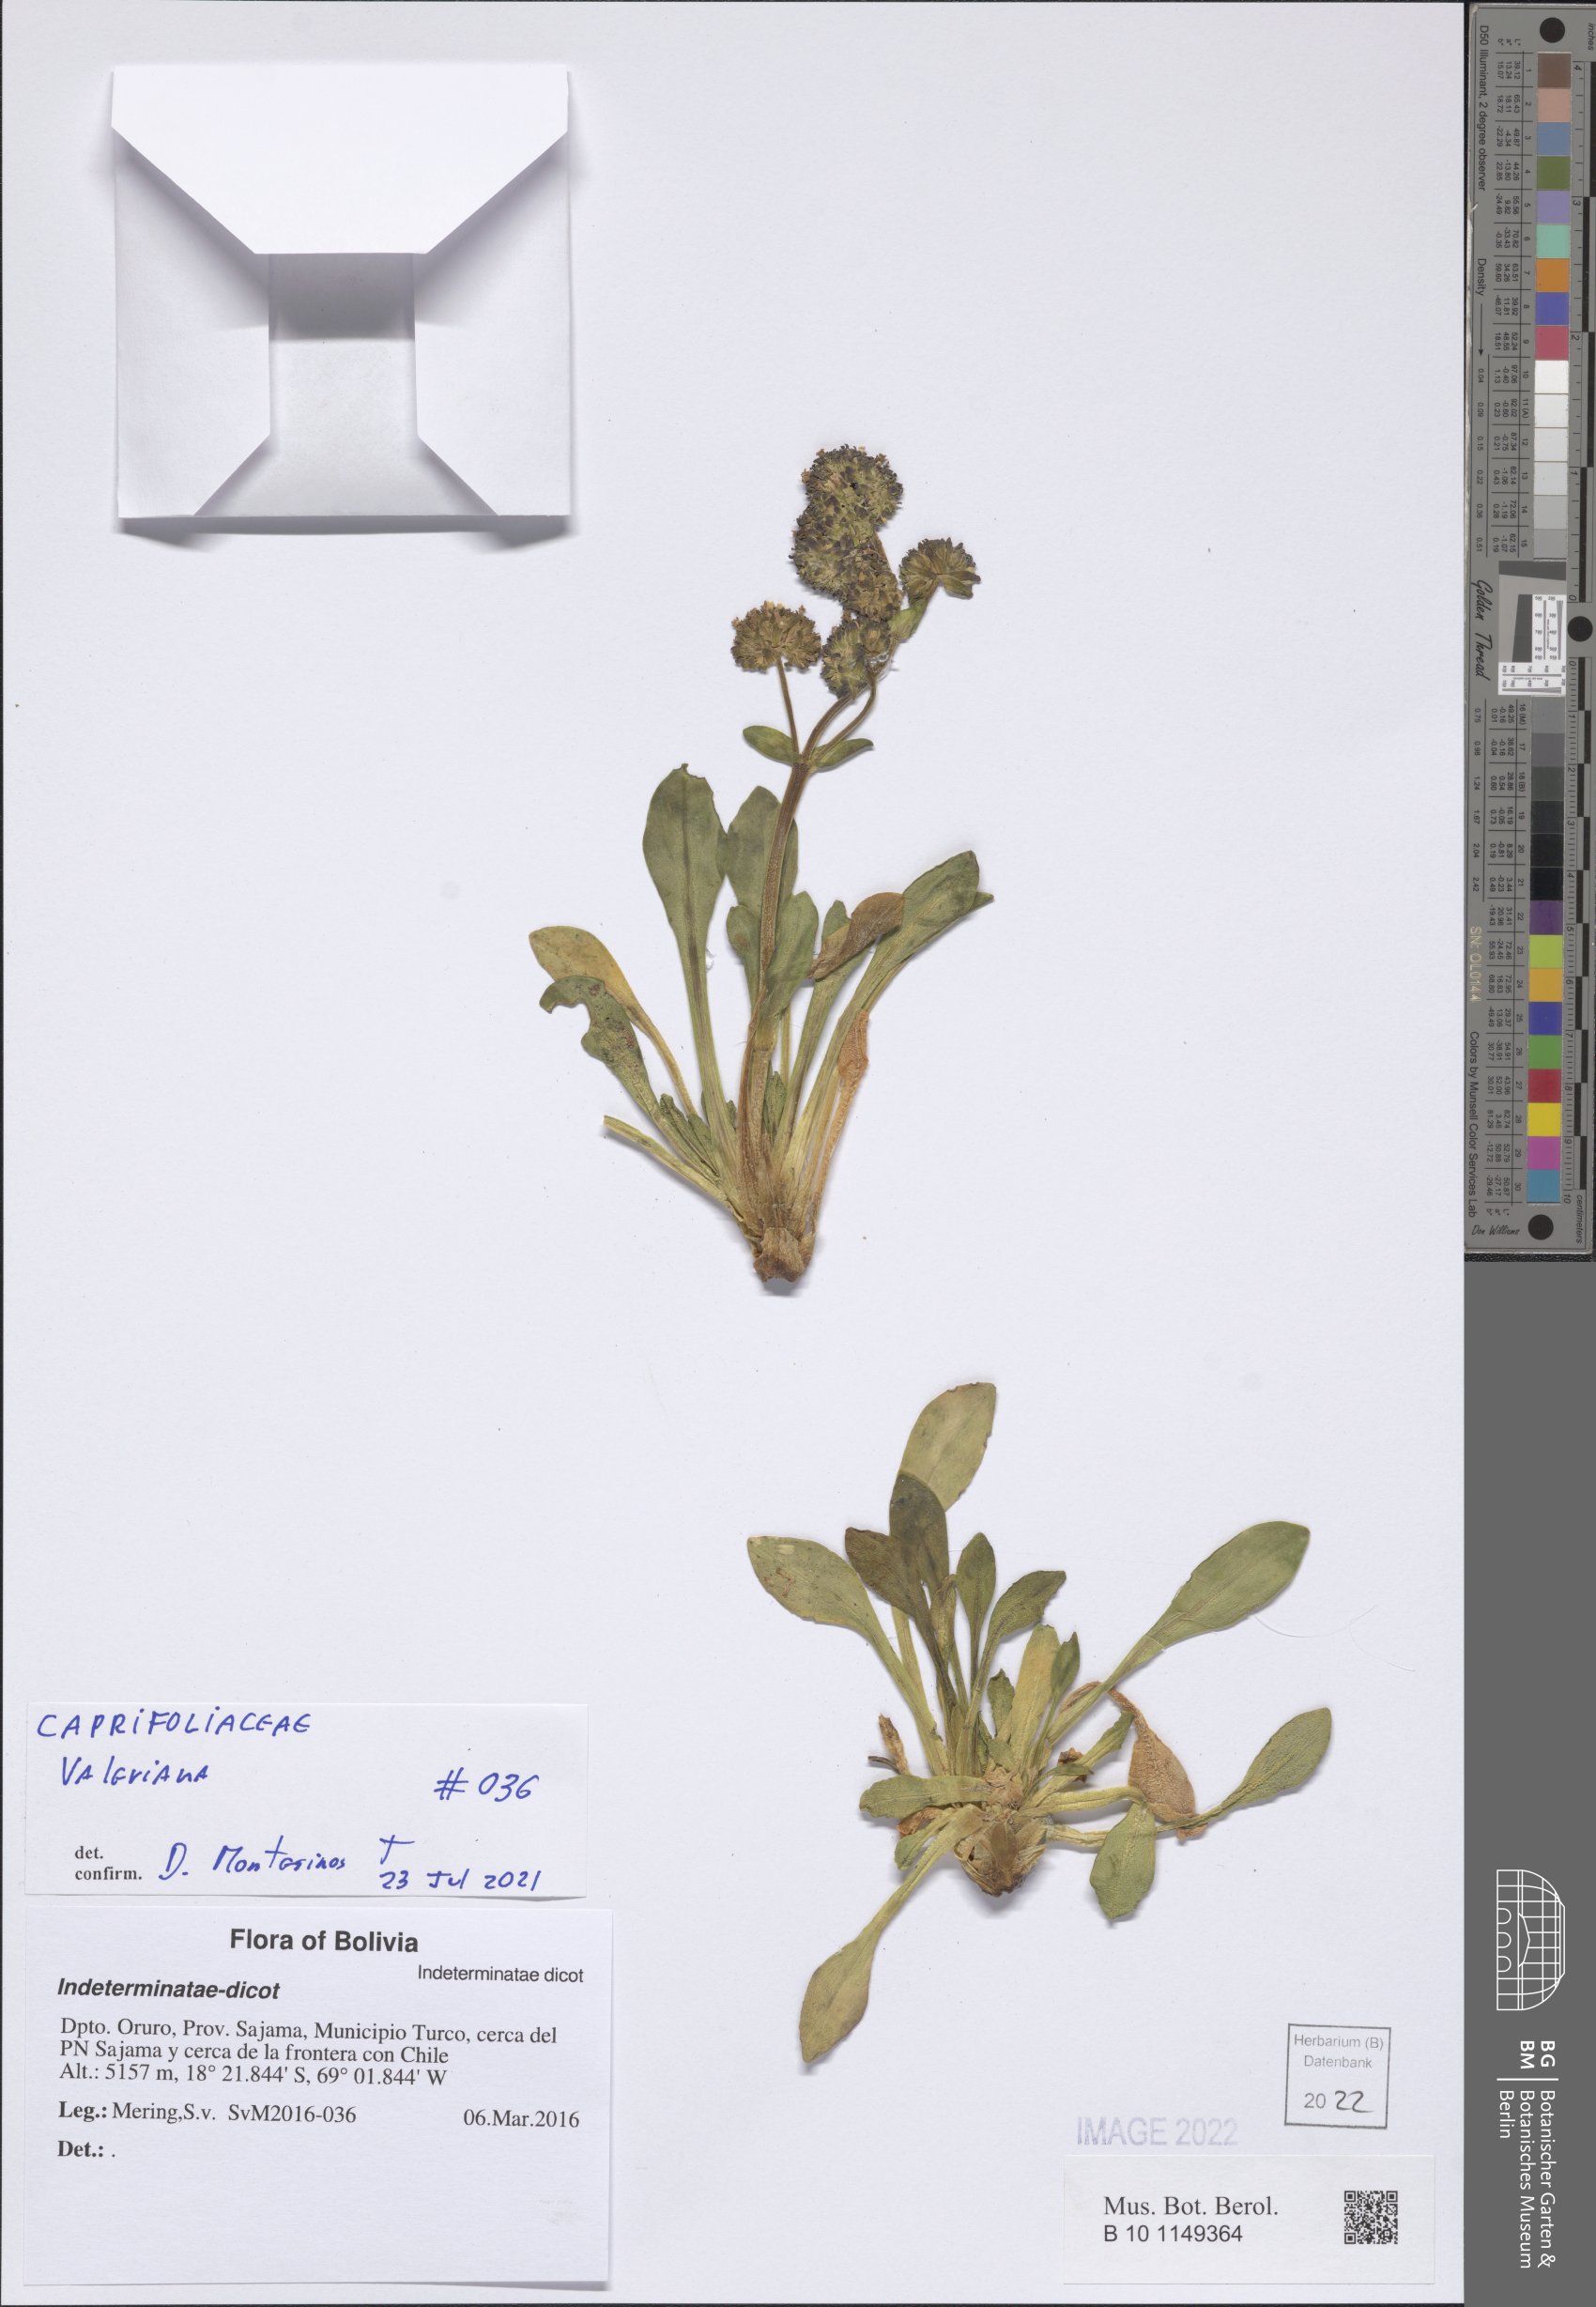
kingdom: Plantae
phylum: Tracheophyta
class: Magnoliopsida
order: Dipsacales
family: Caprifoliaceae
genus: Valeriana
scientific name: Valeriana
